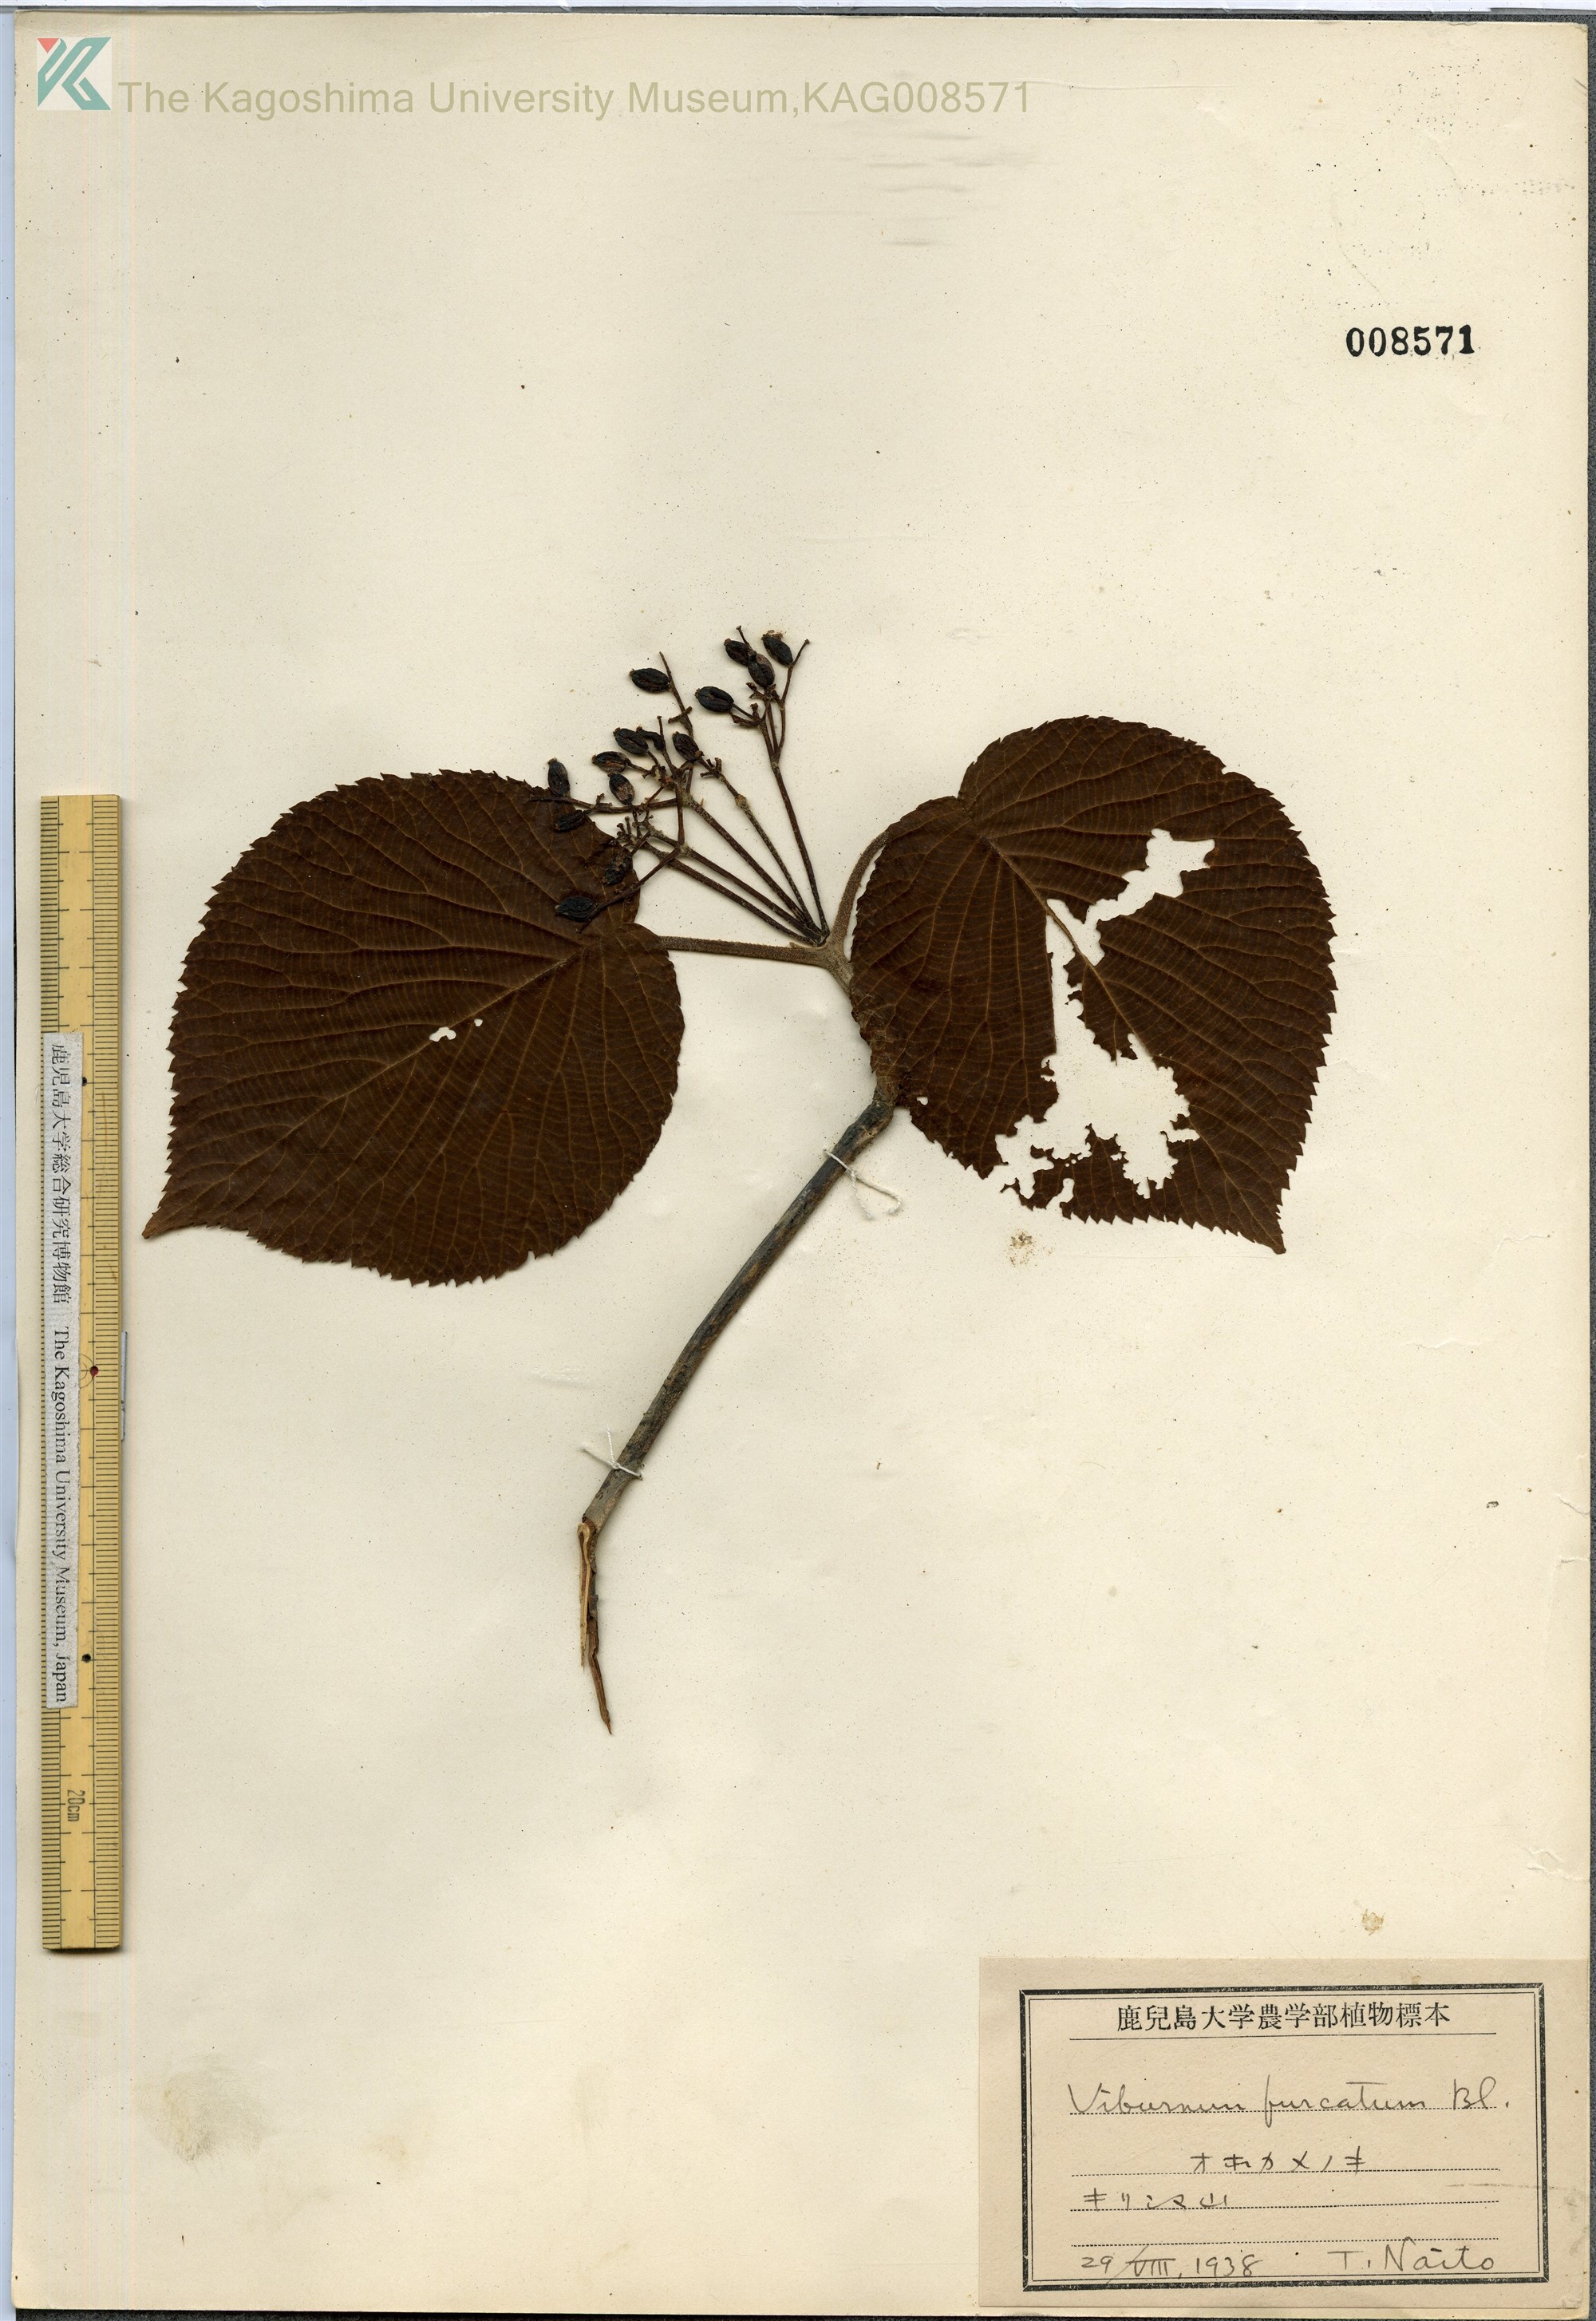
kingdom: Plantae
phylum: Tracheophyta
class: Magnoliopsida
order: Dipsacales
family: Viburnaceae
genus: Viburnum
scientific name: Viburnum furcatum
